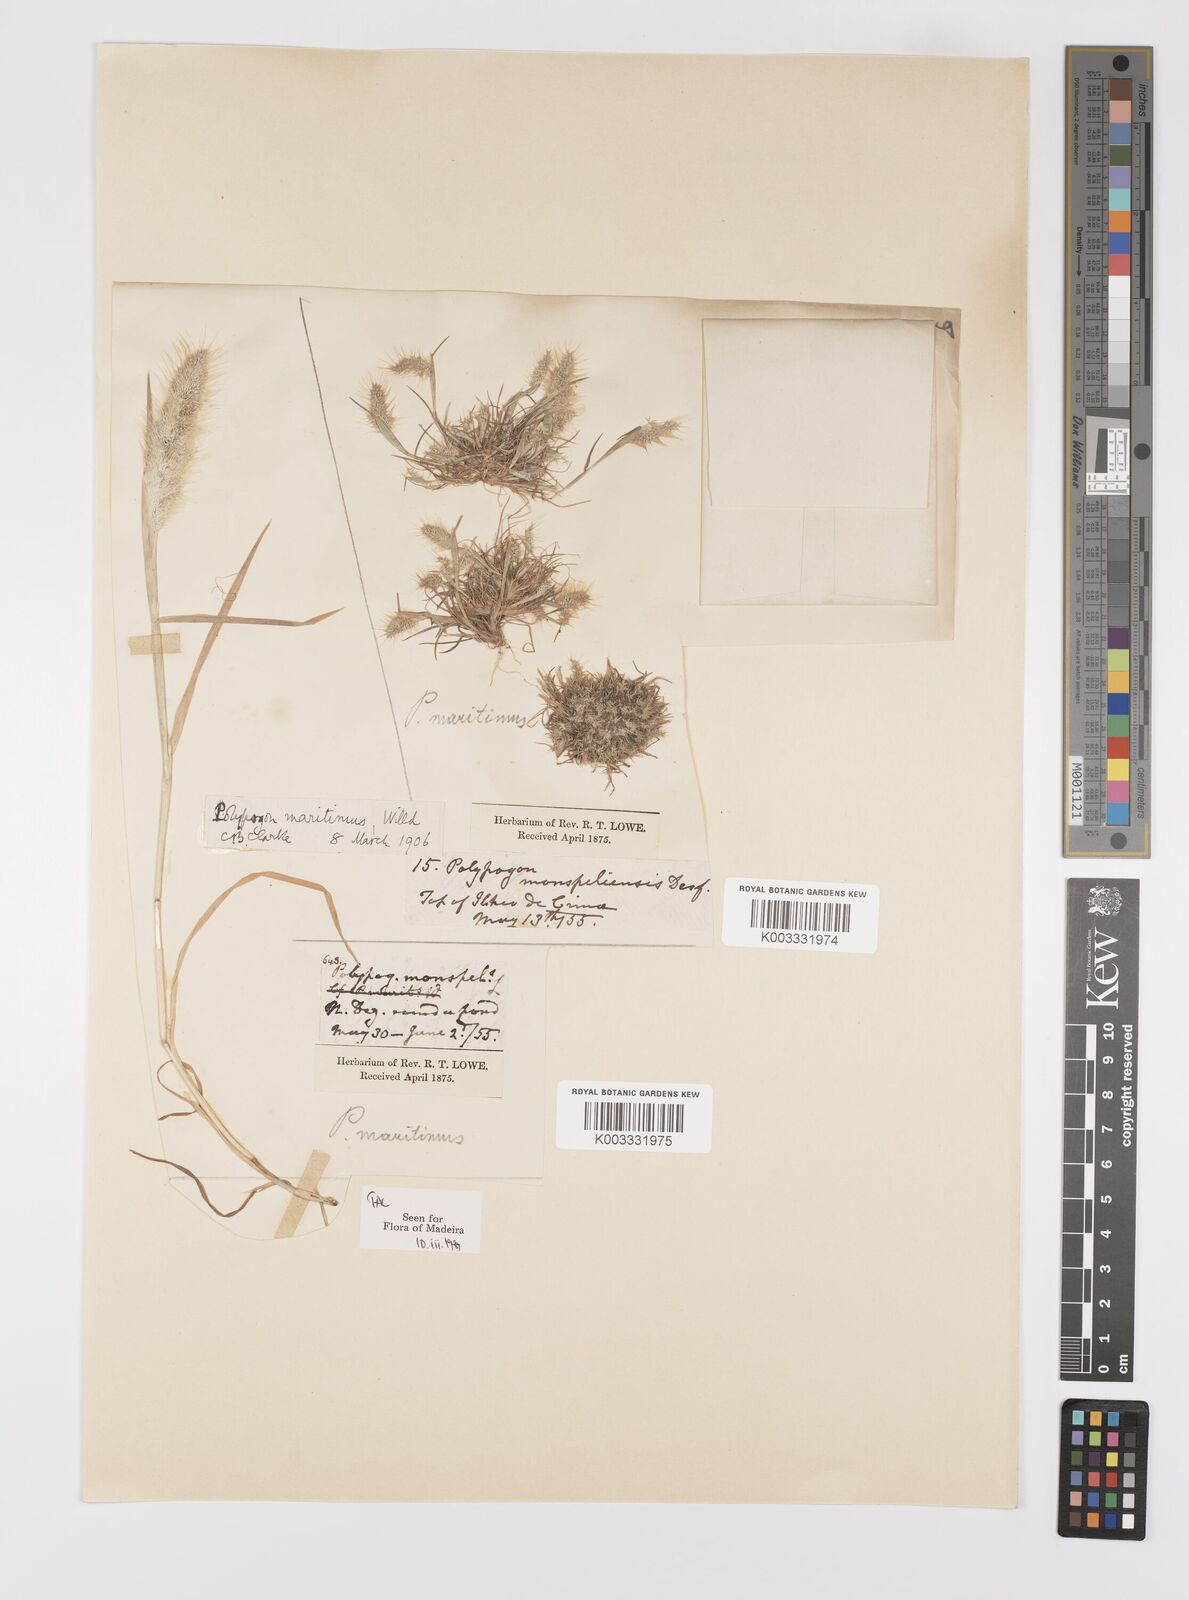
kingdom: Plantae
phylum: Tracheophyta
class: Liliopsida
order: Poales
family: Poaceae
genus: Polypogon
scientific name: Polypogon maritimus
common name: Mediterranean rabbitsfoot grass
